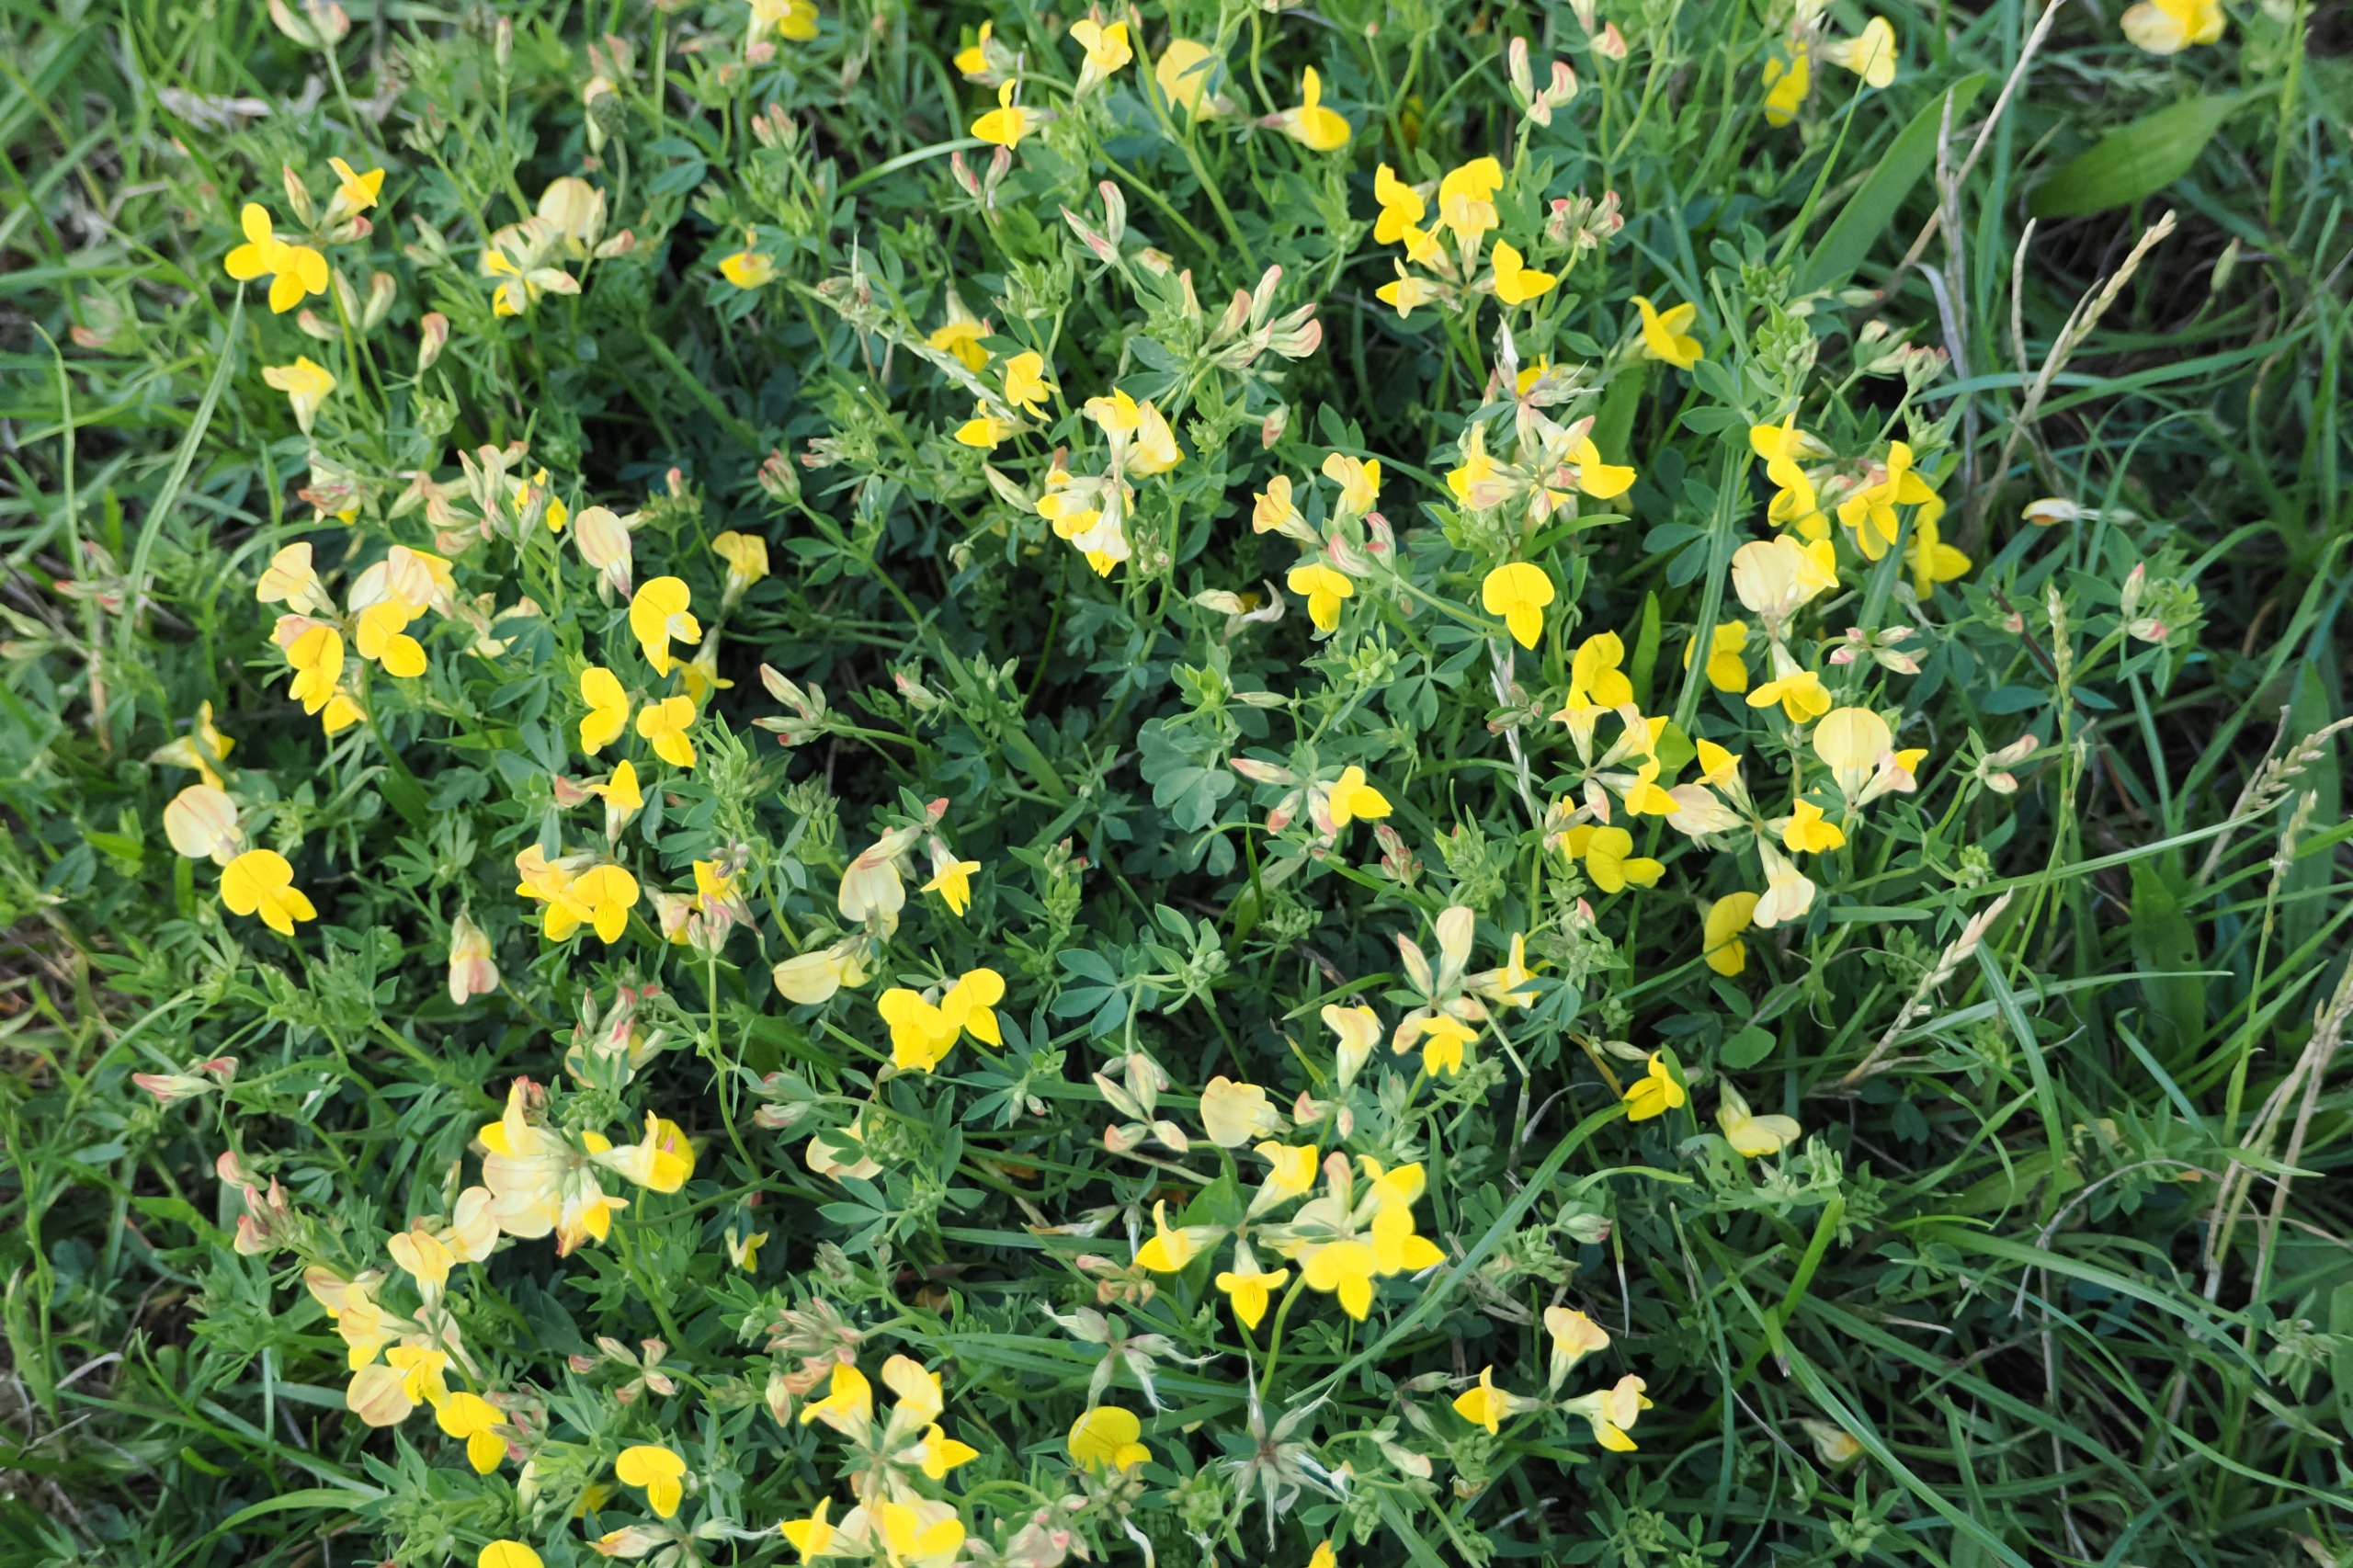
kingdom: Plantae
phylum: Tracheophyta
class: Magnoliopsida
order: Fabales
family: Fabaceae
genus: Lotus
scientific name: Lotus corniculatus
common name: Almindelig kællingetand
